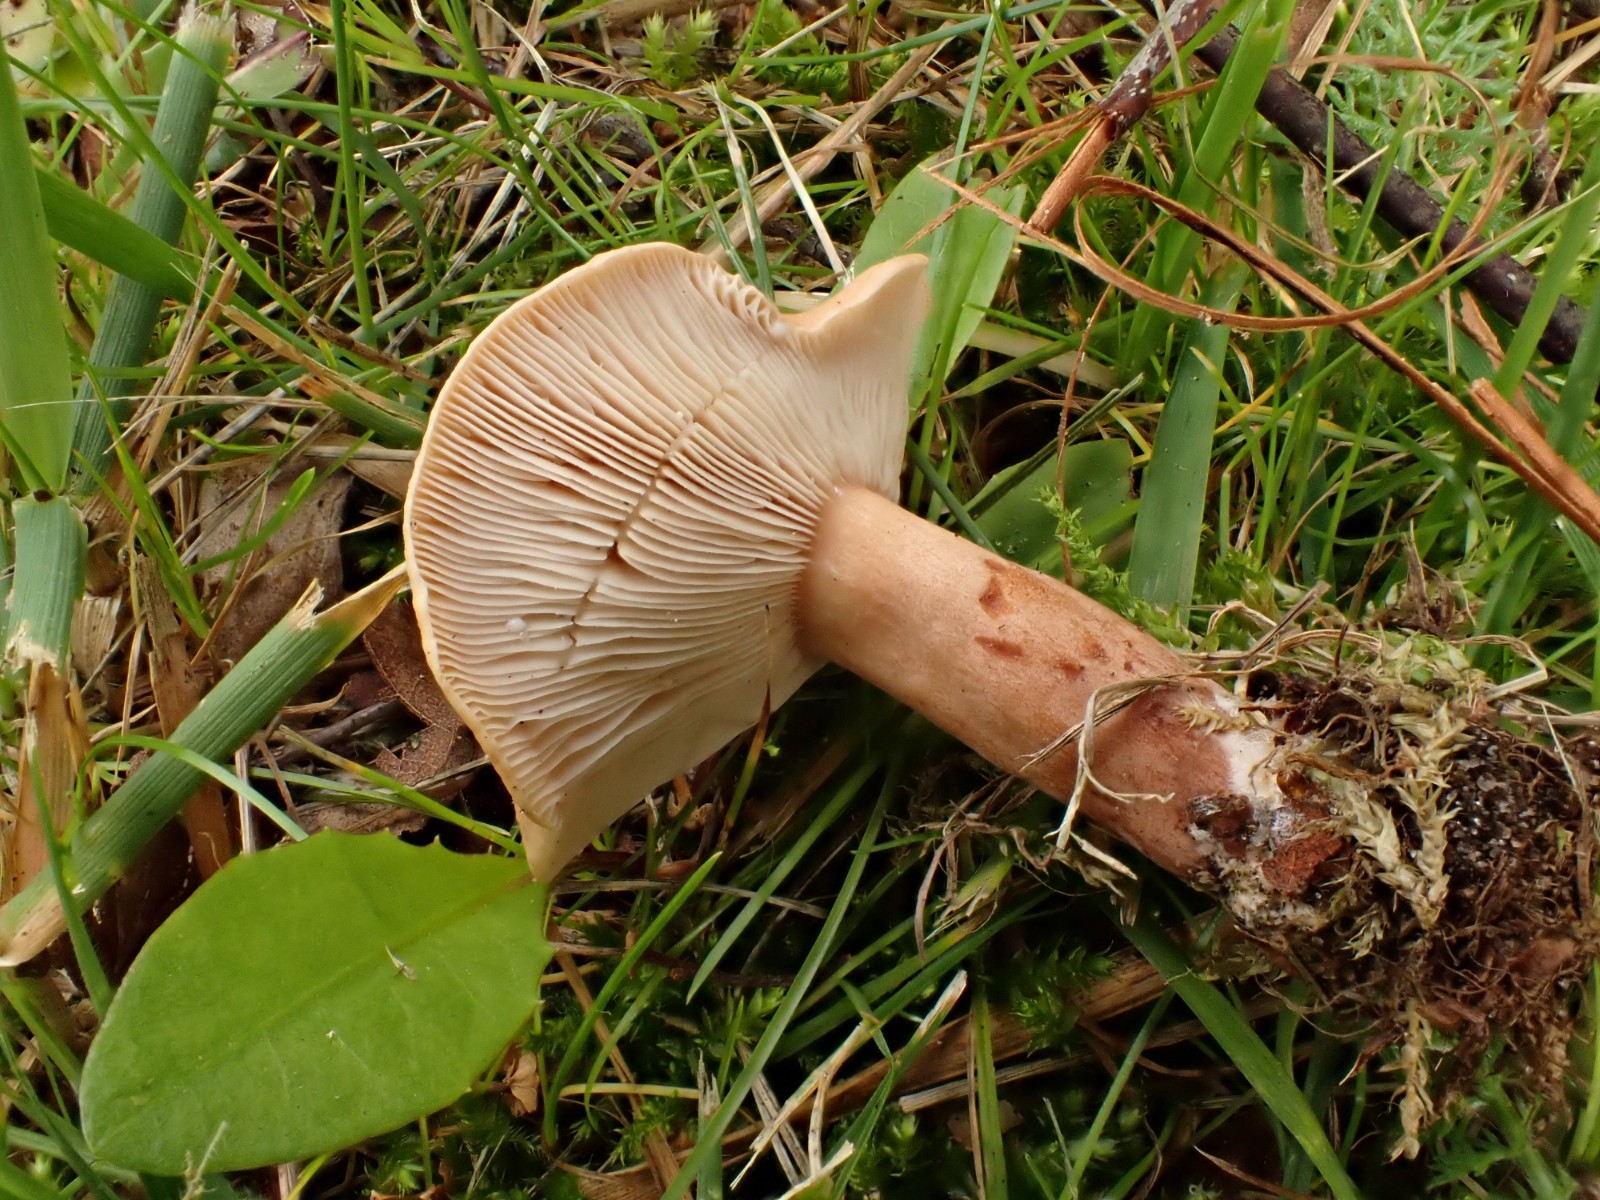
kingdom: Fungi
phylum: Basidiomycota
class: Agaricomycetes
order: Russulales
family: Russulaceae
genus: Lactarius
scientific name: Lactarius tabidus
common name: rynket mælkehat
